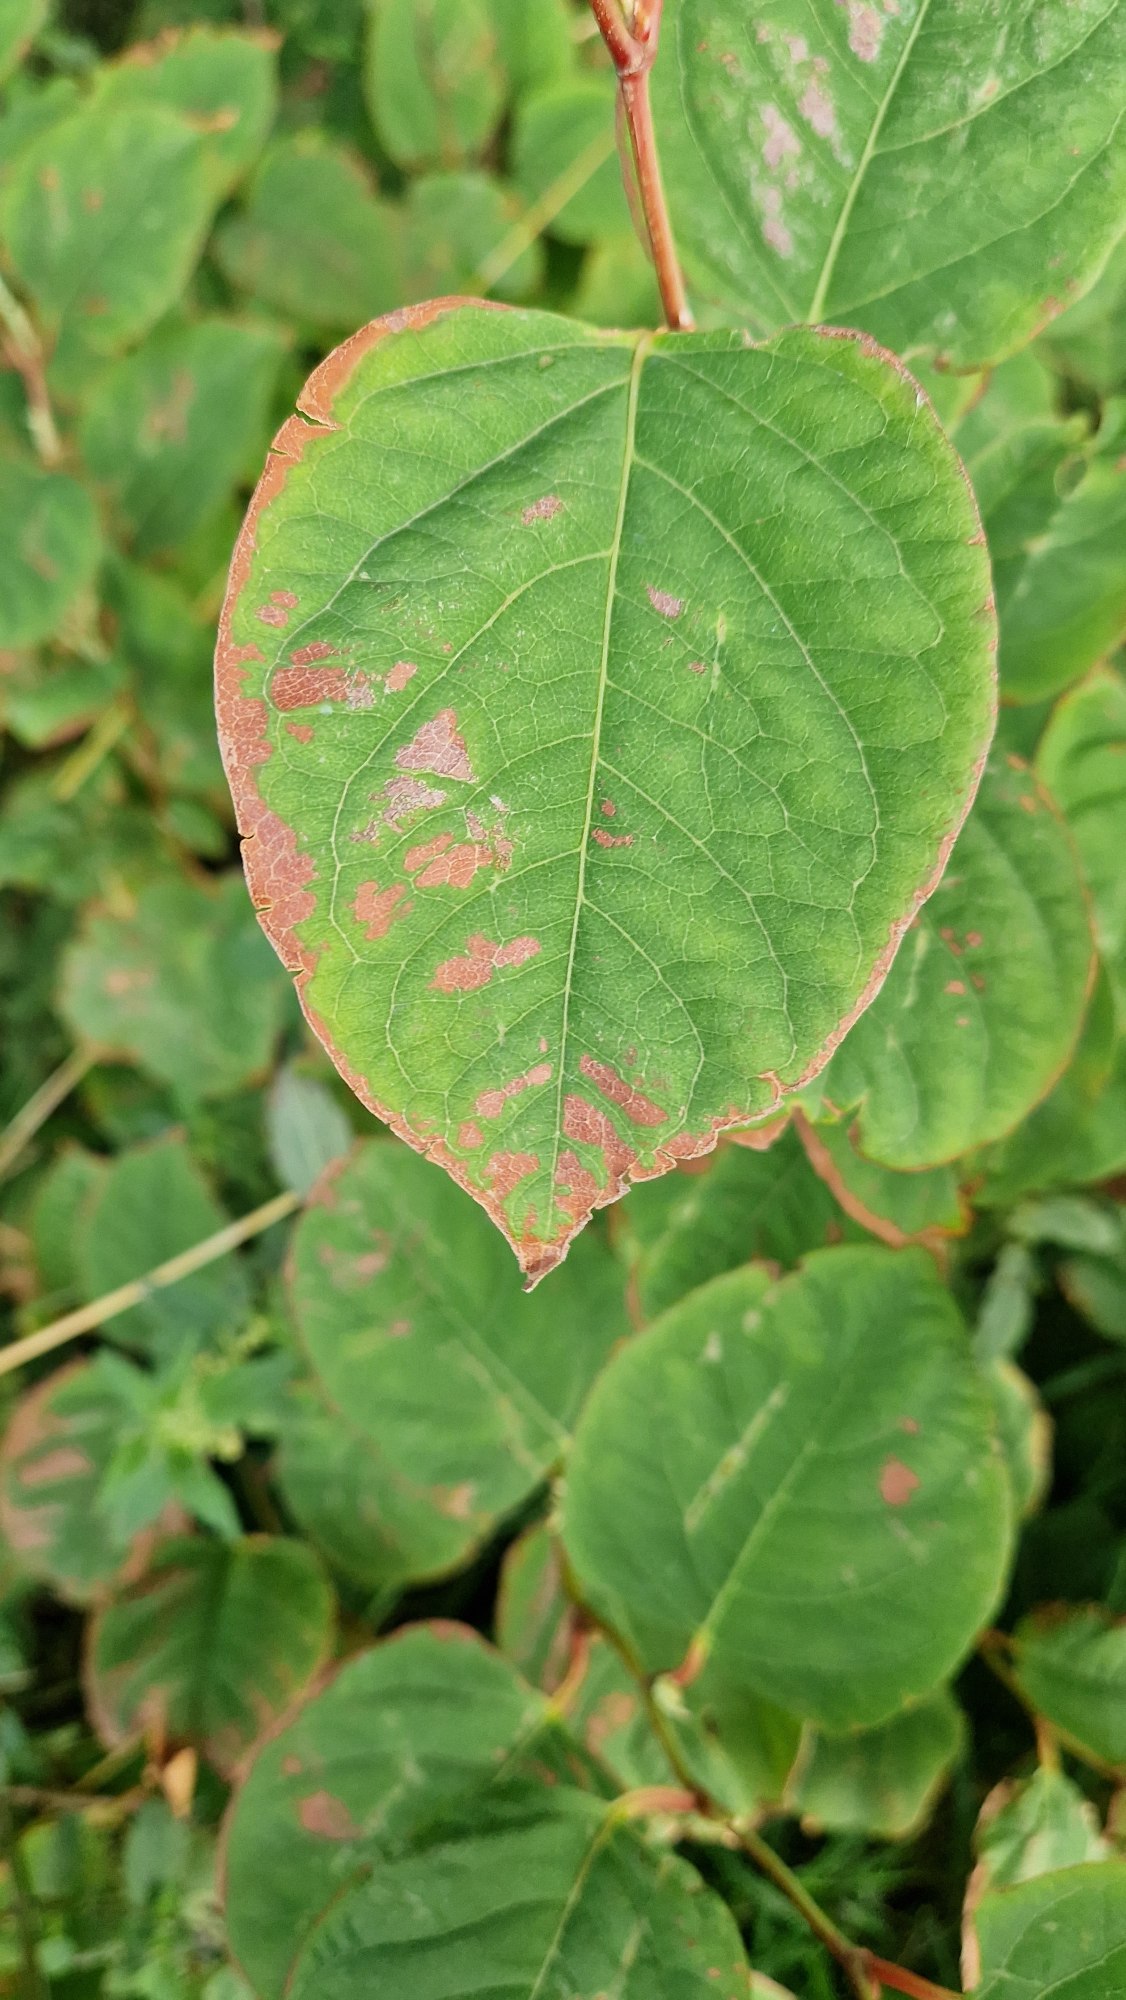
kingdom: Plantae
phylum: Tracheophyta
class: Magnoliopsida
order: Caryophyllales
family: Polygonaceae
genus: Reynoutria
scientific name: Reynoutria japonica
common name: Japan-pileurt
